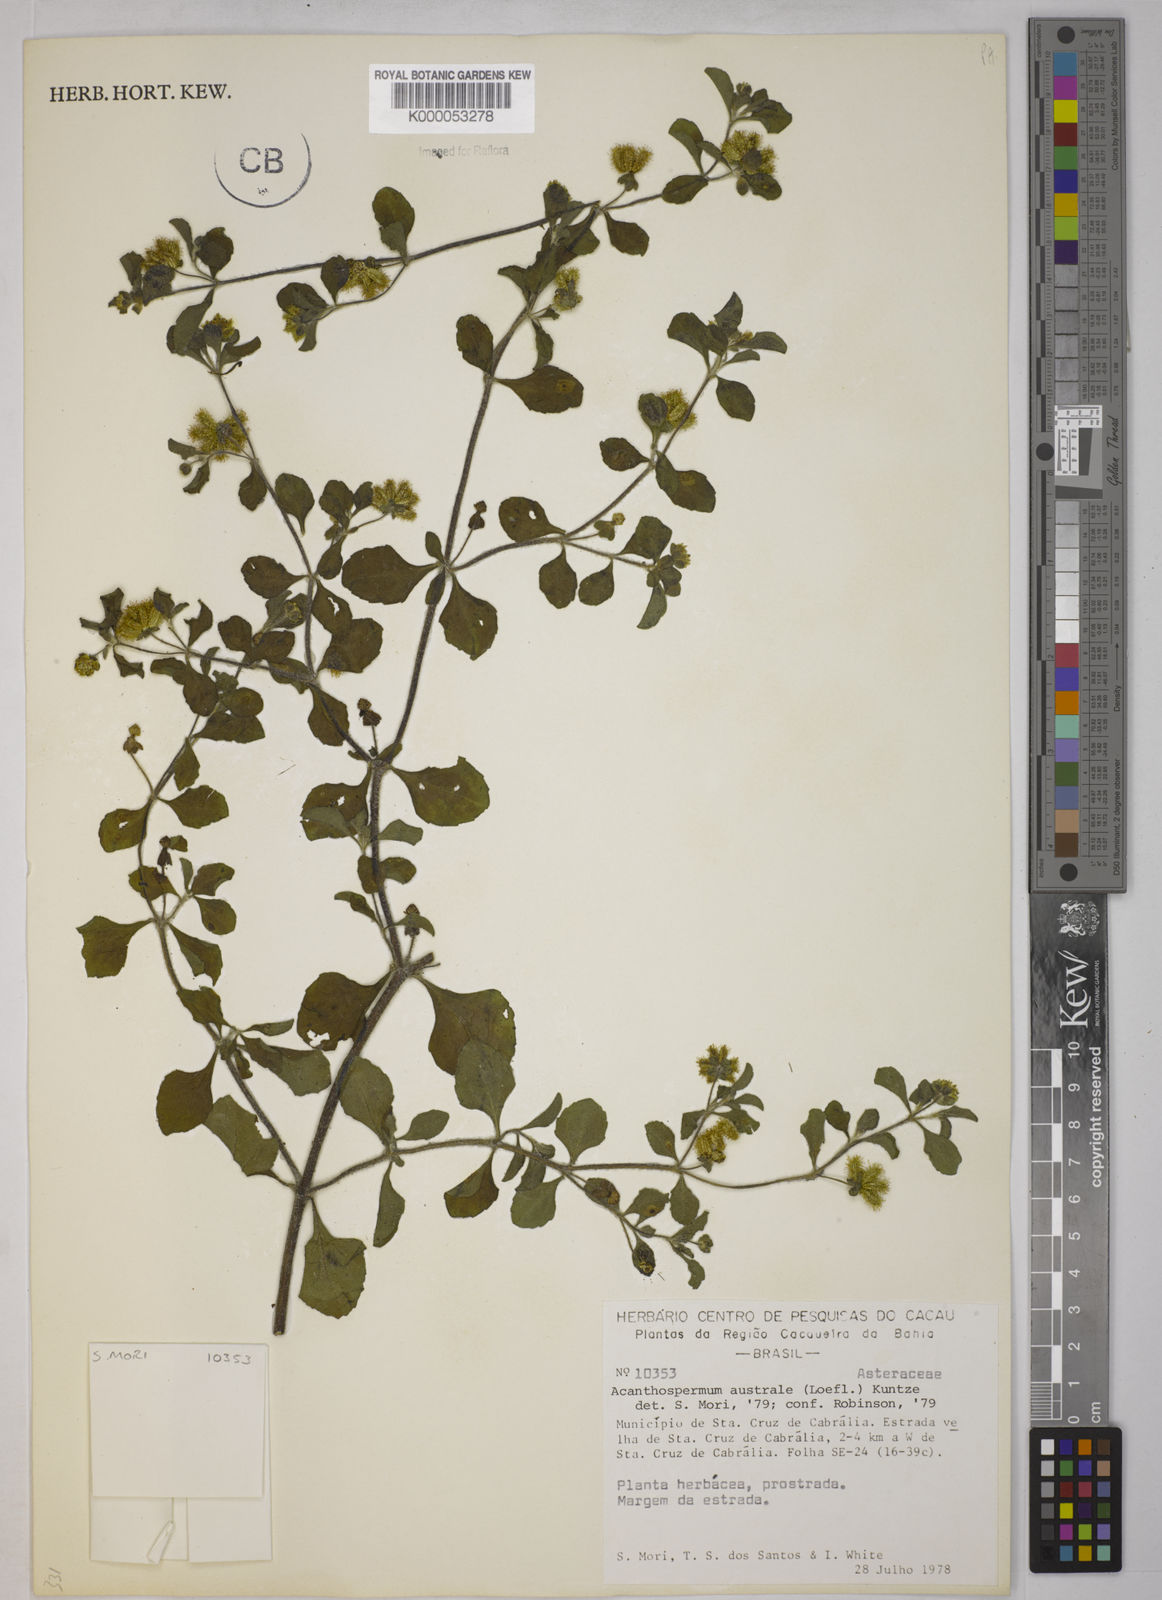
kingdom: Plantae
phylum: Tracheophyta
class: Magnoliopsida
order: Asterales
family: Asteraceae
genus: Acanthospermum
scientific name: Acanthospermum australe
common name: Paraguayan starbur
